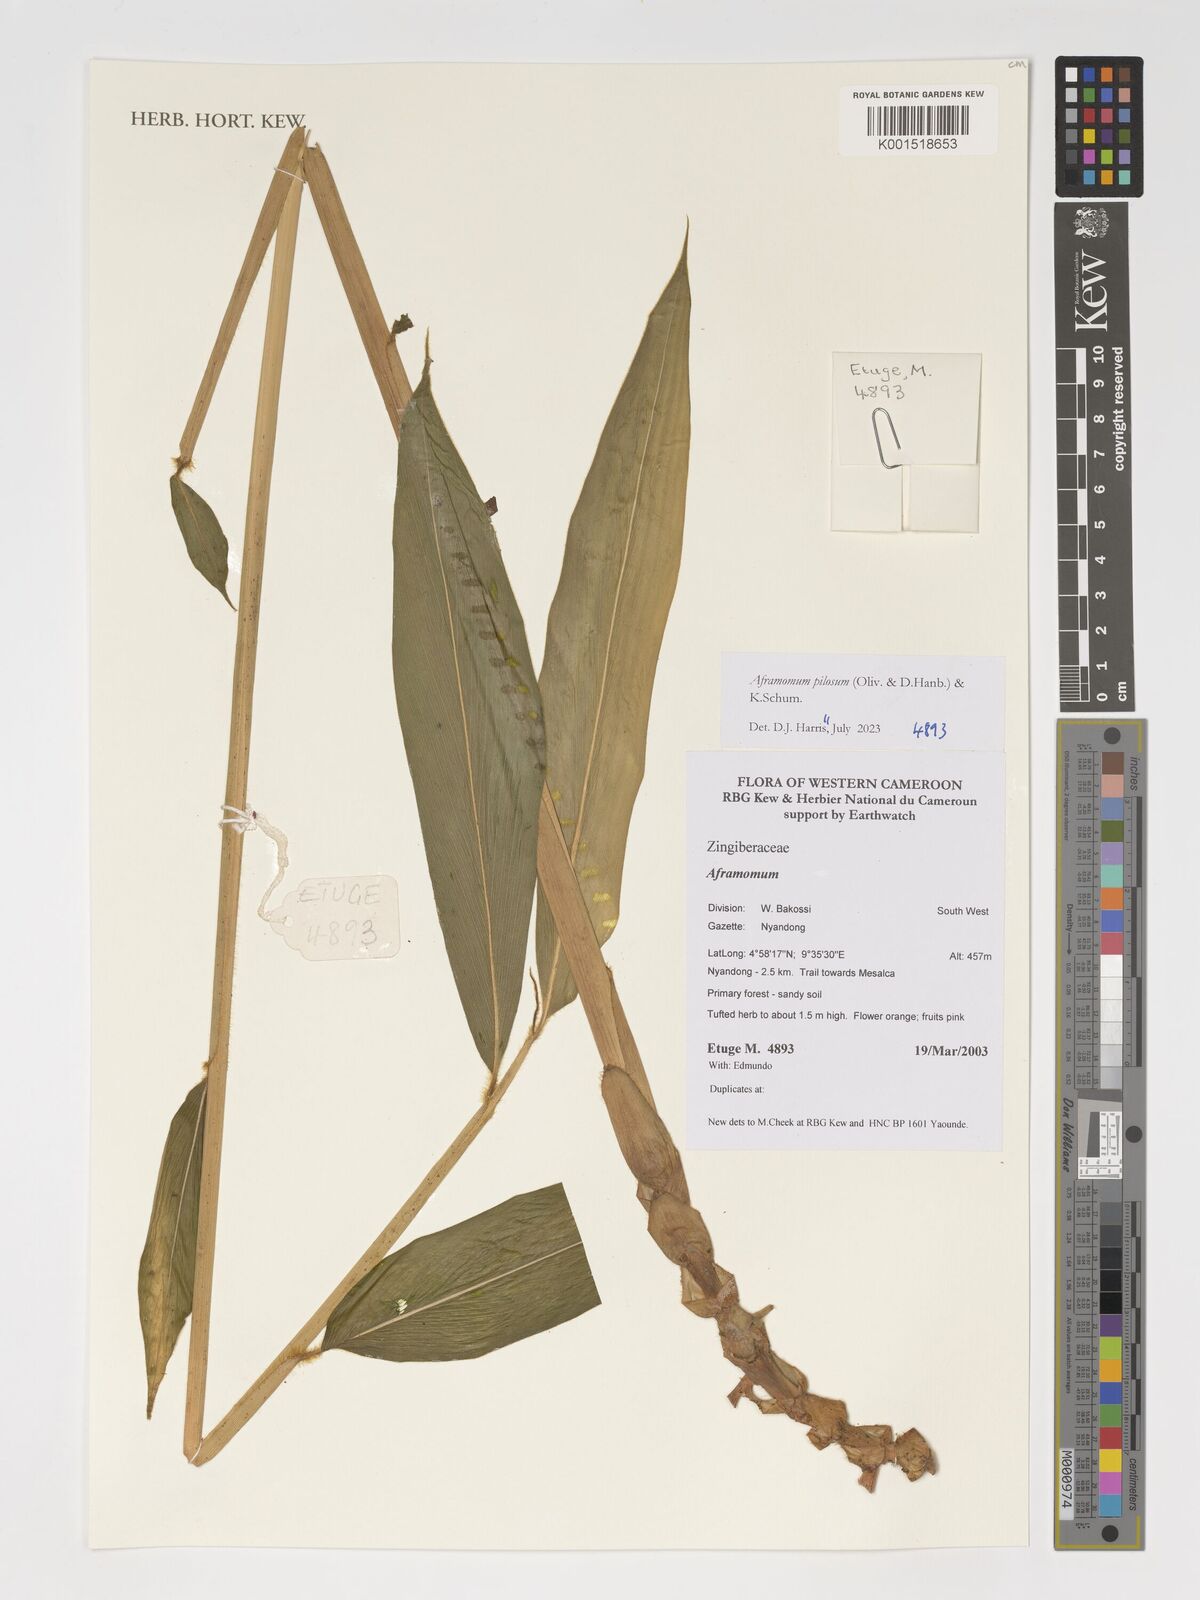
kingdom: Plantae
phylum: Tracheophyta
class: Liliopsida
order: Zingiberales
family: Zingiberaceae
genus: Aframomum
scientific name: Aframomum pilosum
